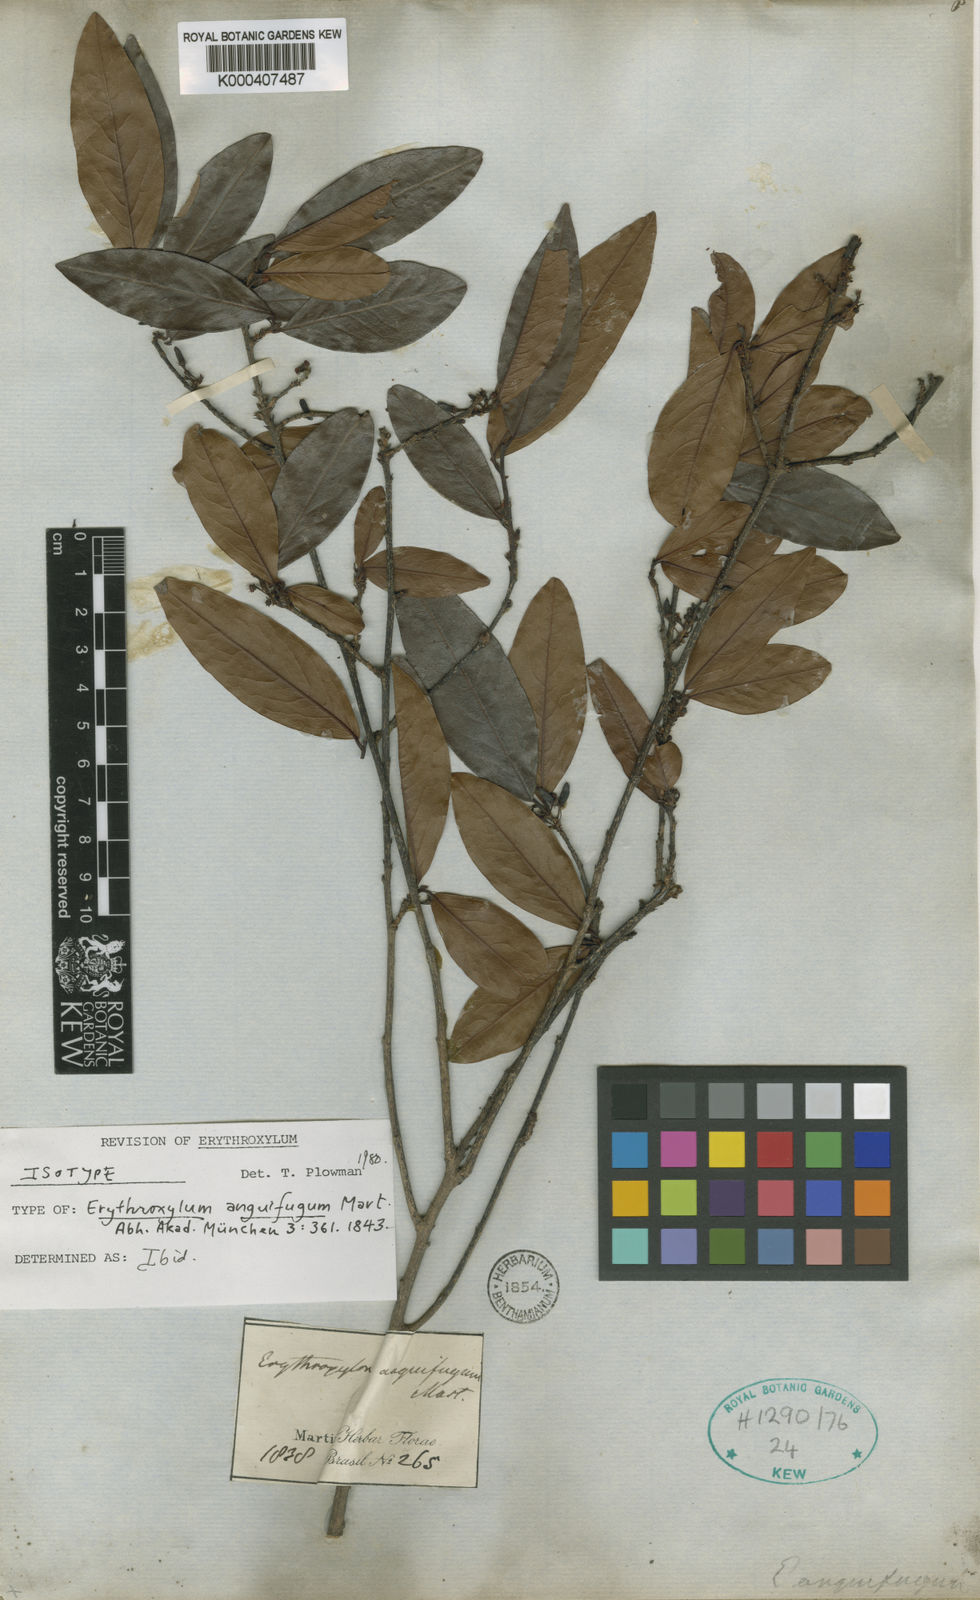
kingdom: Plantae
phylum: Tracheophyta
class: Magnoliopsida
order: Malpighiales
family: Erythroxylaceae
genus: Erythroxylum
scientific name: Erythroxylum anguifugum
